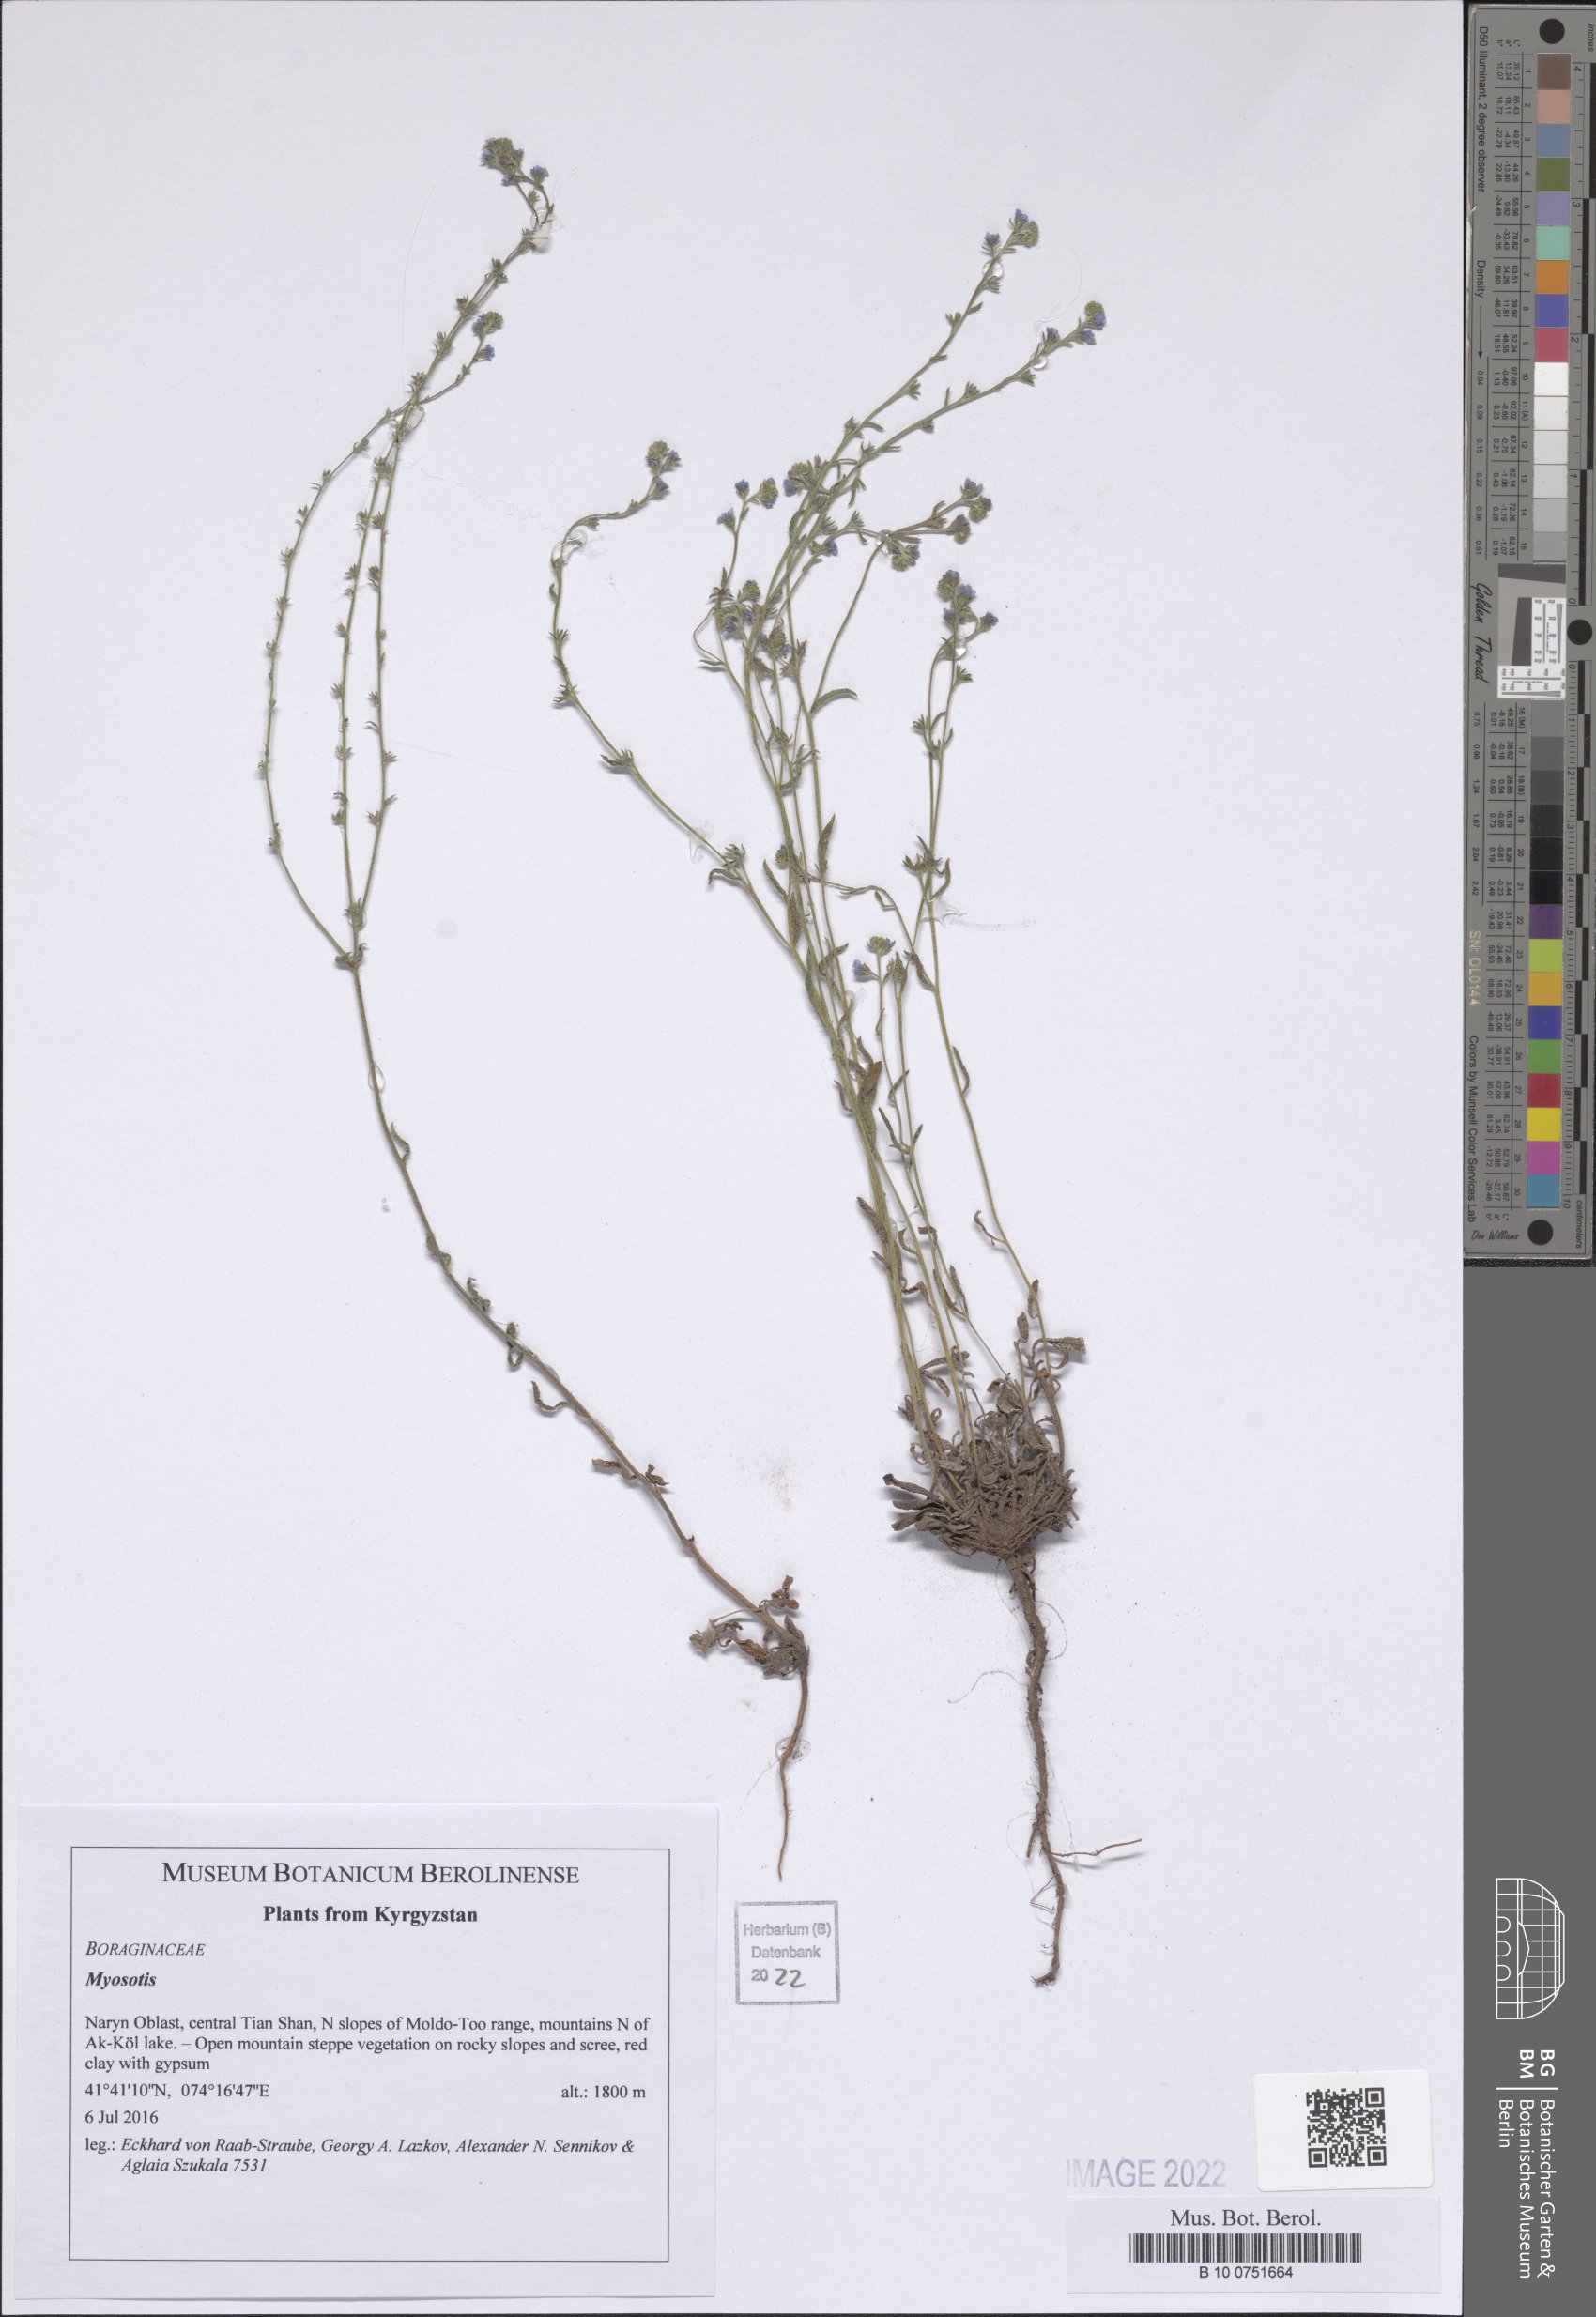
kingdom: Plantae
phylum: Tracheophyta
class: Magnoliopsida
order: Boraginales
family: Boraginaceae
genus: Myosotis
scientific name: Myosotis
